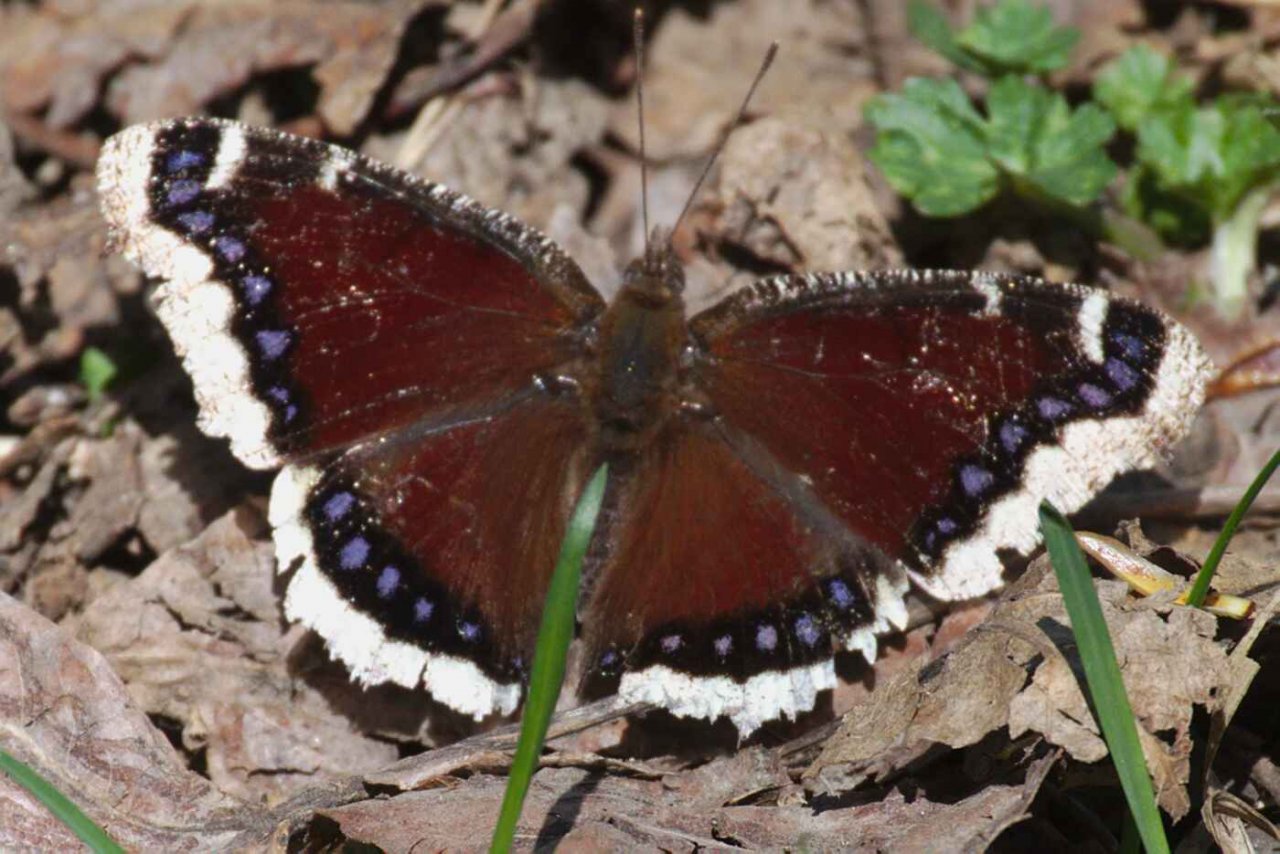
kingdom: Animalia
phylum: Arthropoda
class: Insecta
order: Lepidoptera
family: Nymphalidae
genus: Nymphalis
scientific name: Nymphalis antiopa
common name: Mourning Cloak
